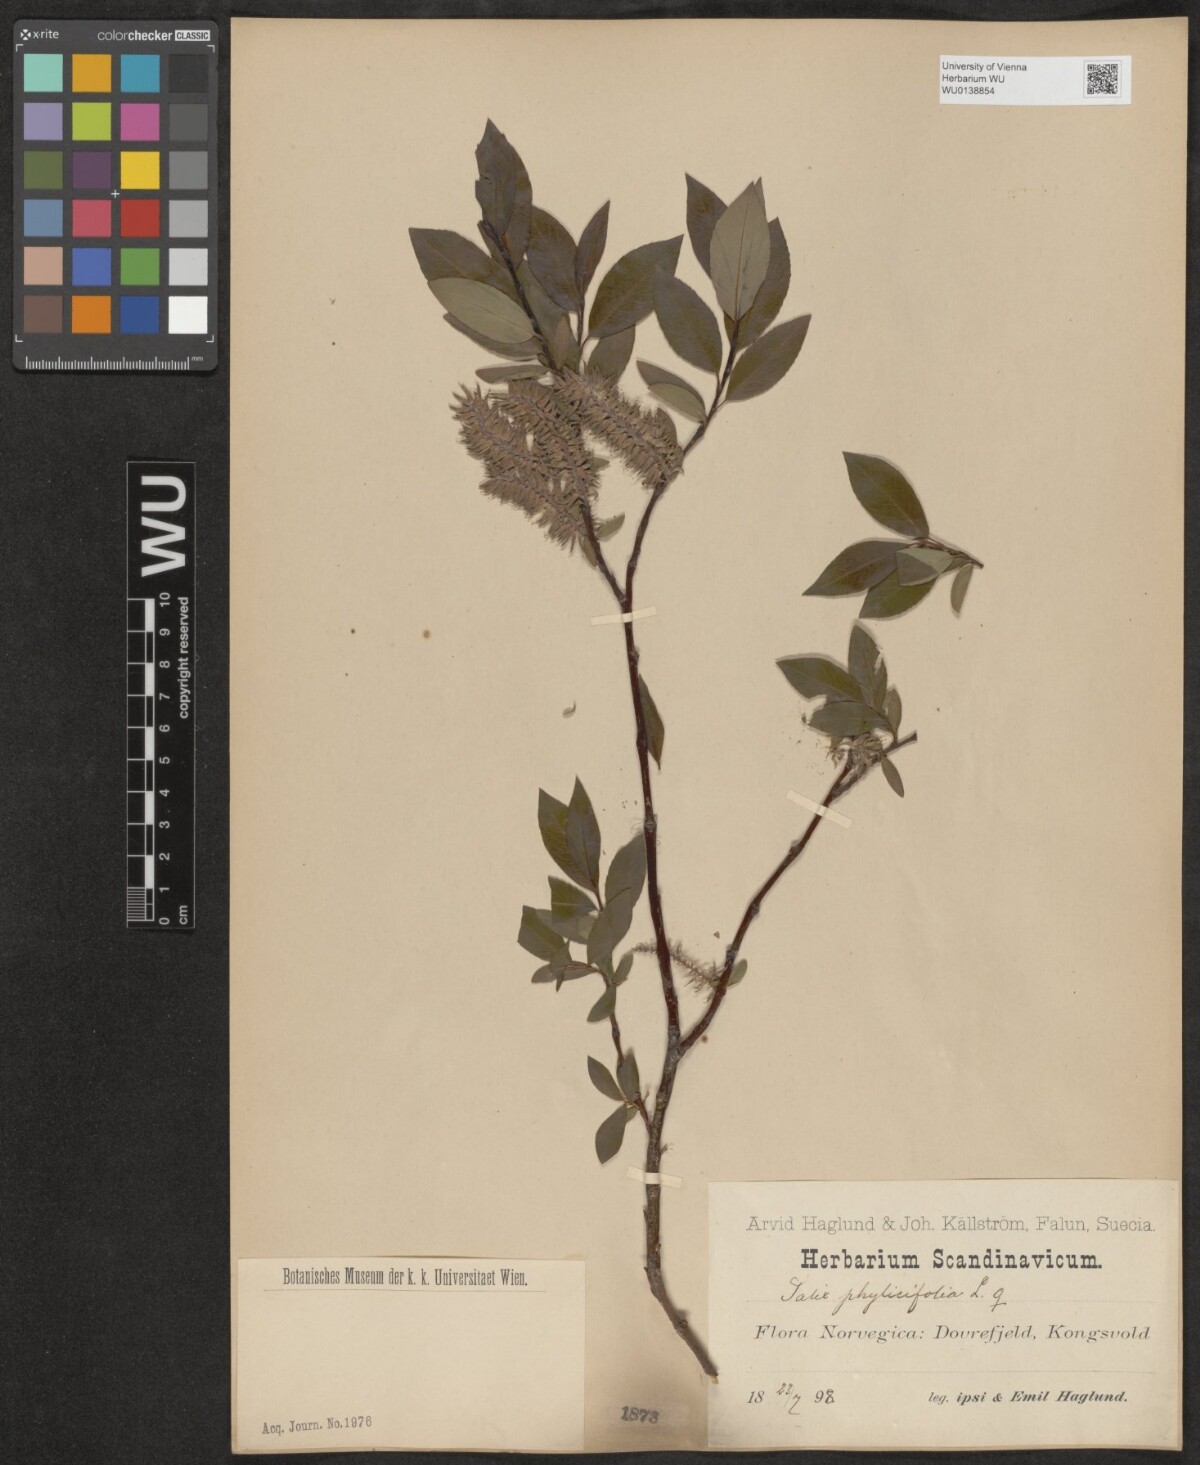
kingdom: Plantae
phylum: Tracheophyta
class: Magnoliopsida
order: Malpighiales
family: Salicaceae
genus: Salix
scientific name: Salix phylicifolia
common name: Tea-leaved willow
